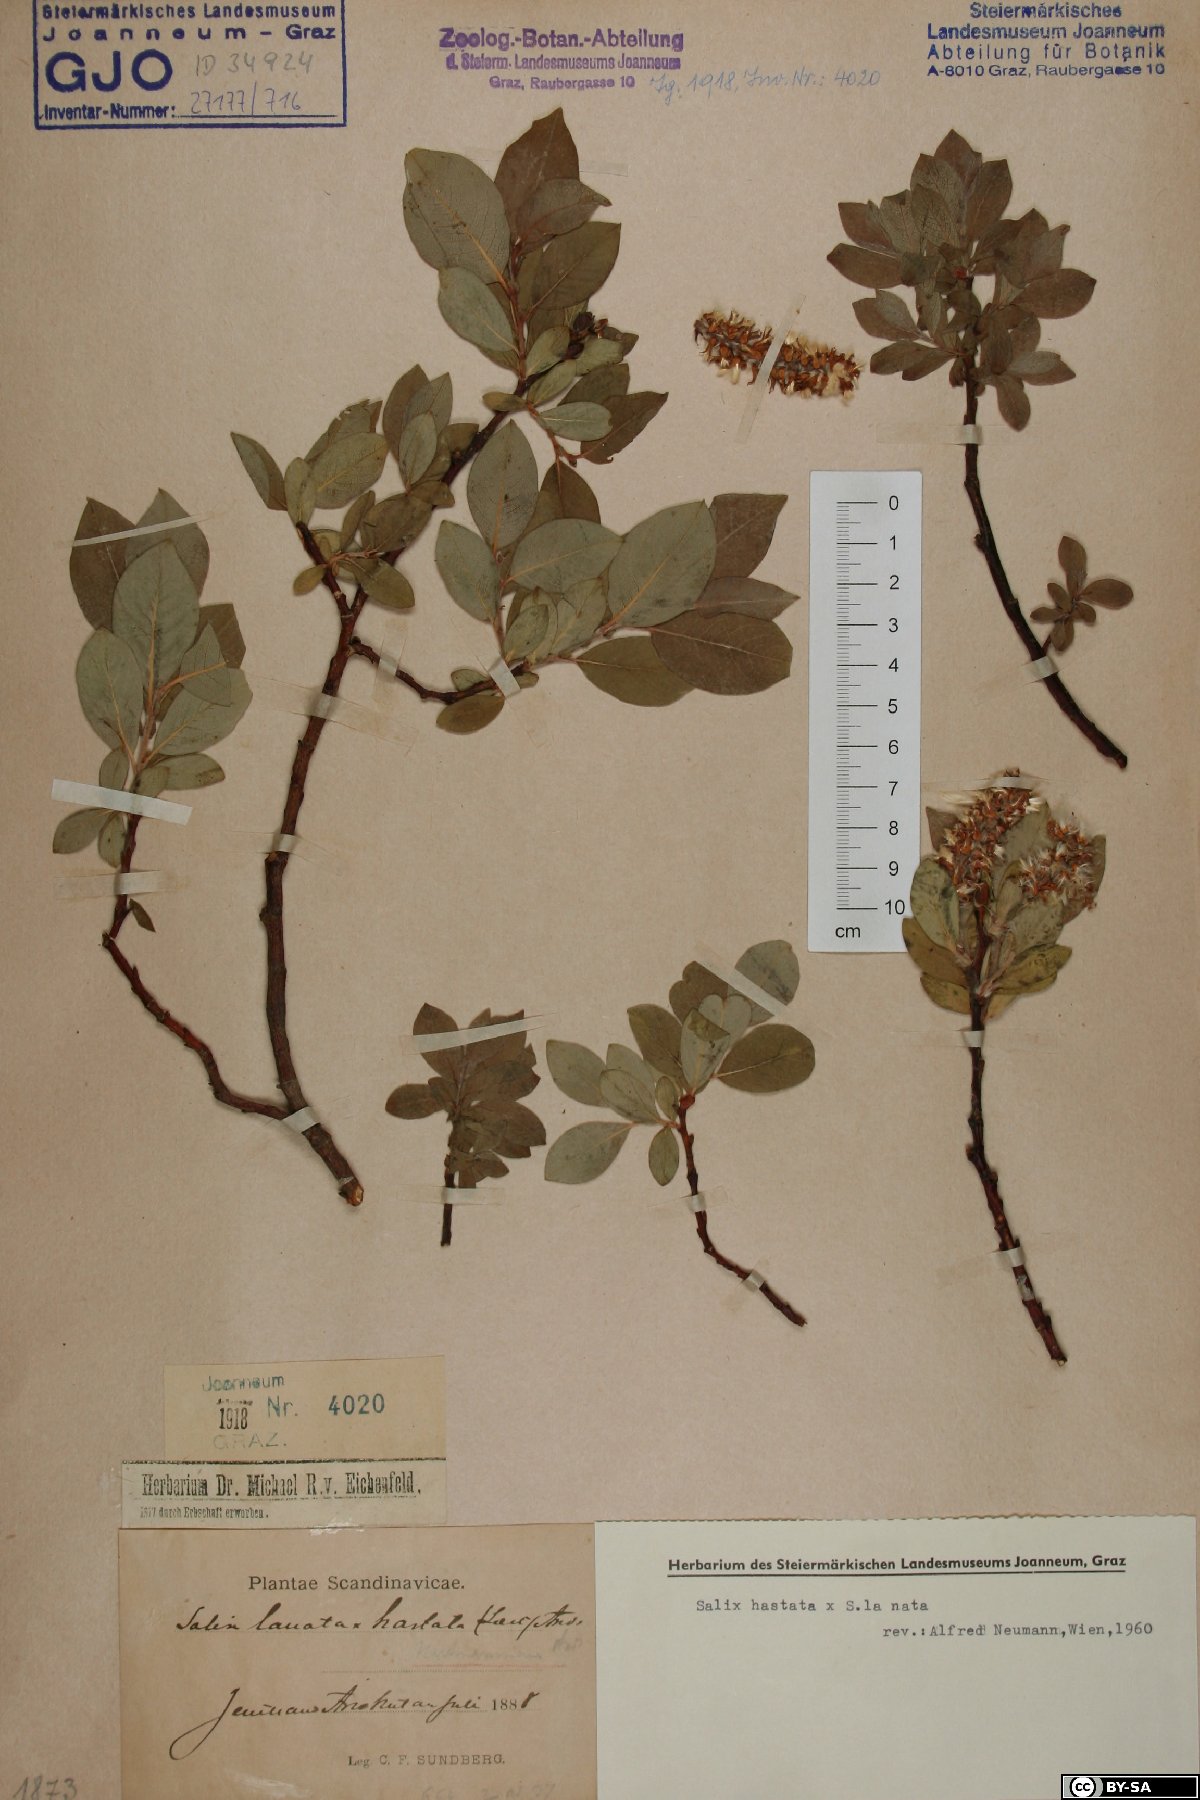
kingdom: Plantae
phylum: Tracheophyta
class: Magnoliopsida
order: Malpighiales
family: Salicaceae
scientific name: Salicaceae
